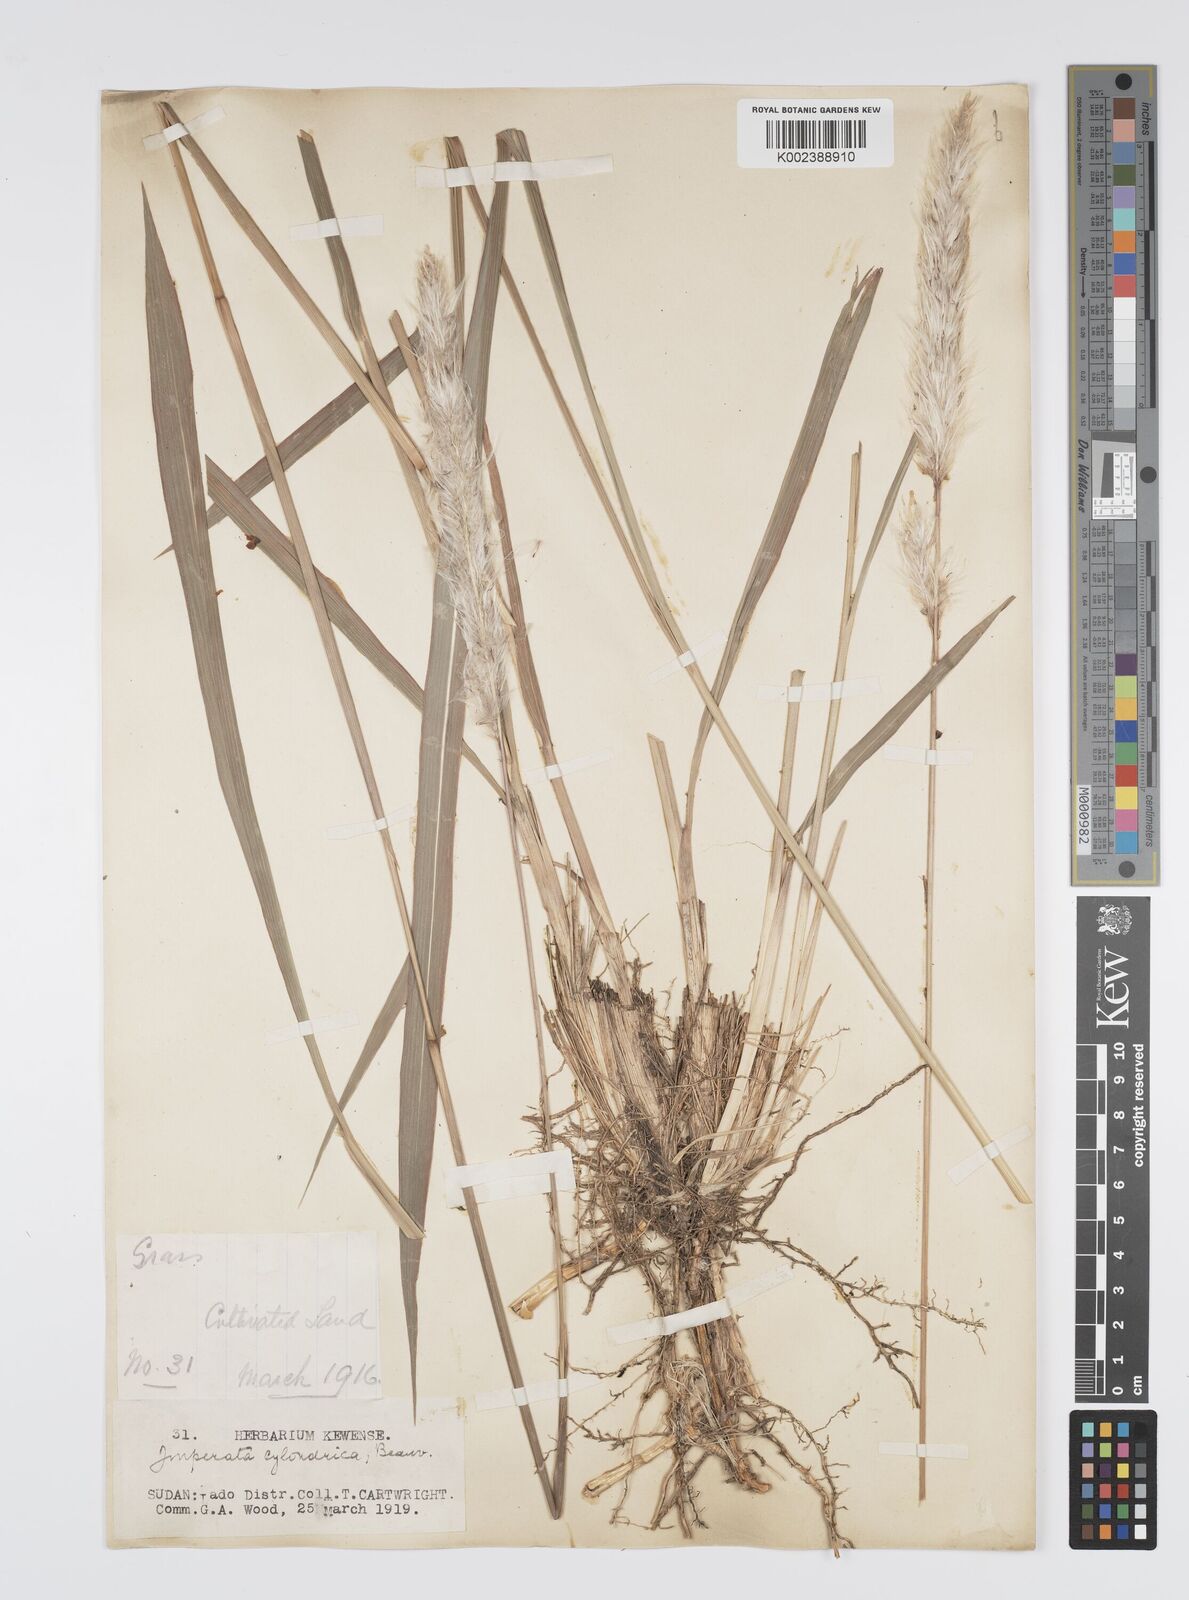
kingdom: Plantae
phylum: Tracheophyta
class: Liliopsida
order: Poales
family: Poaceae
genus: Imperata
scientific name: Imperata cylindrica
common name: Cogongrass
